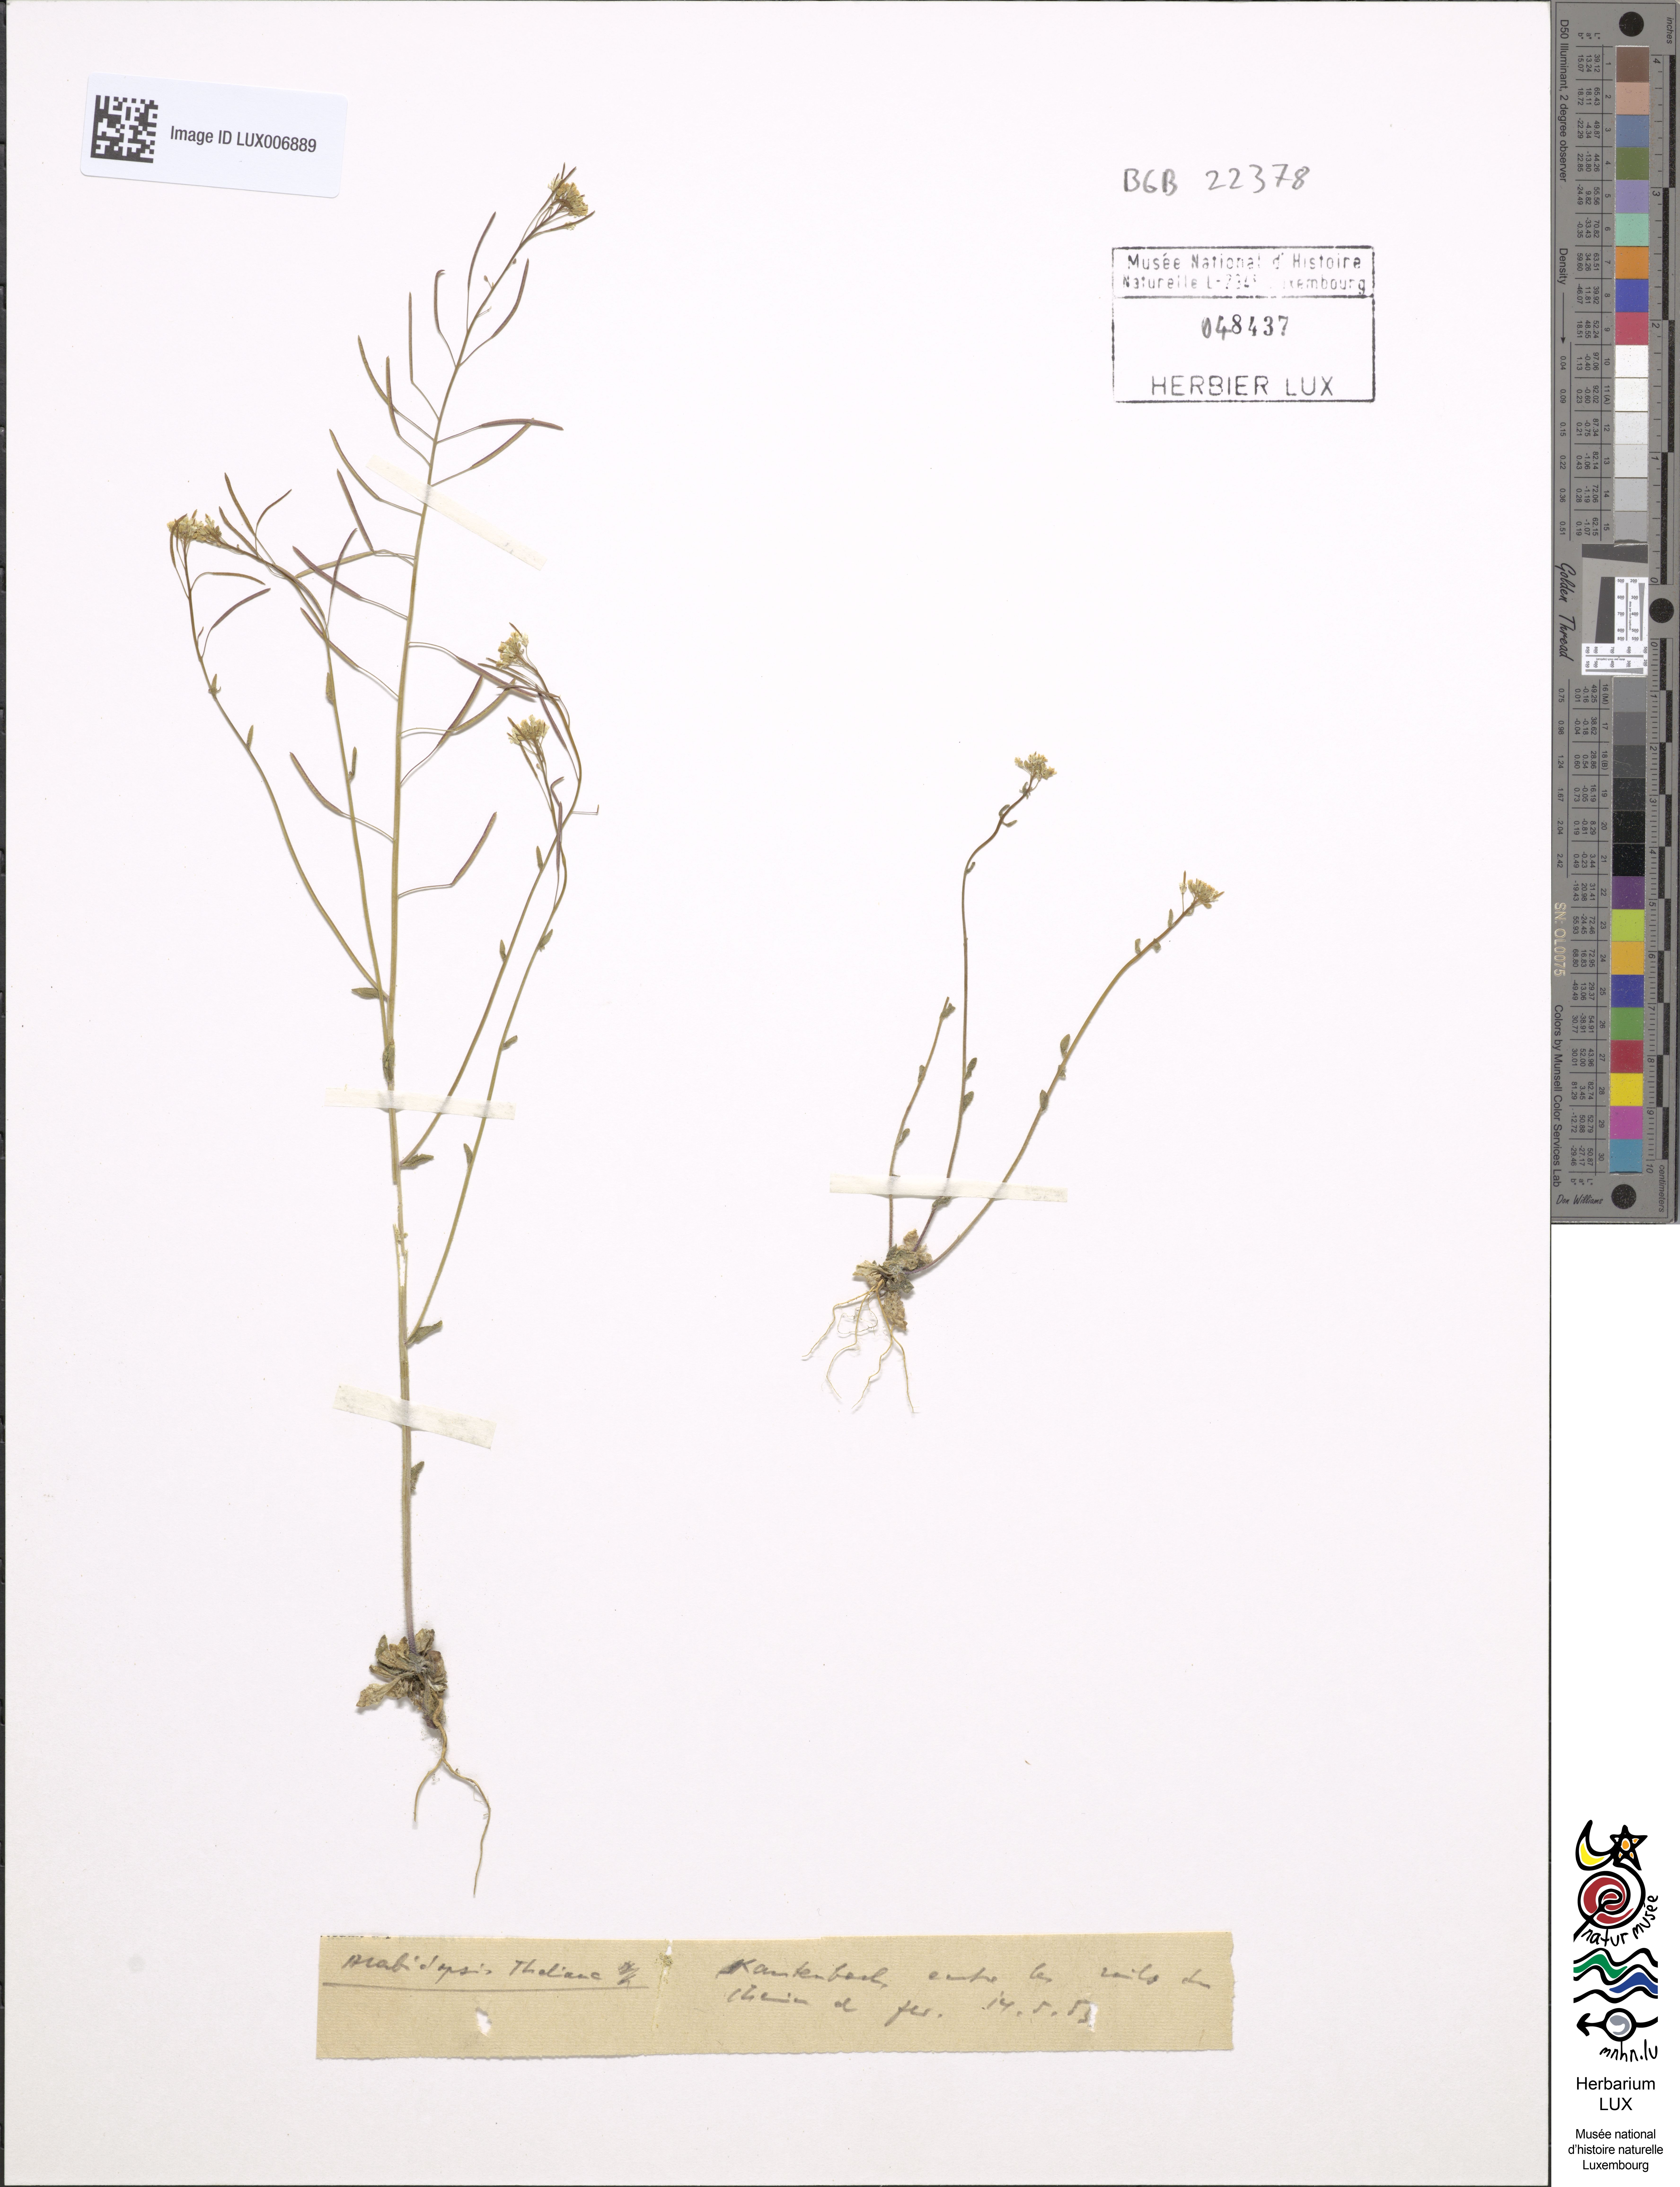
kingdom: Plantae
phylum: Tracheophyta
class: Magnoliopsida
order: Brassicales
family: Brassicaceae
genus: Arabidopsis
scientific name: Arabidopsis thaliana
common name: Thale cress
